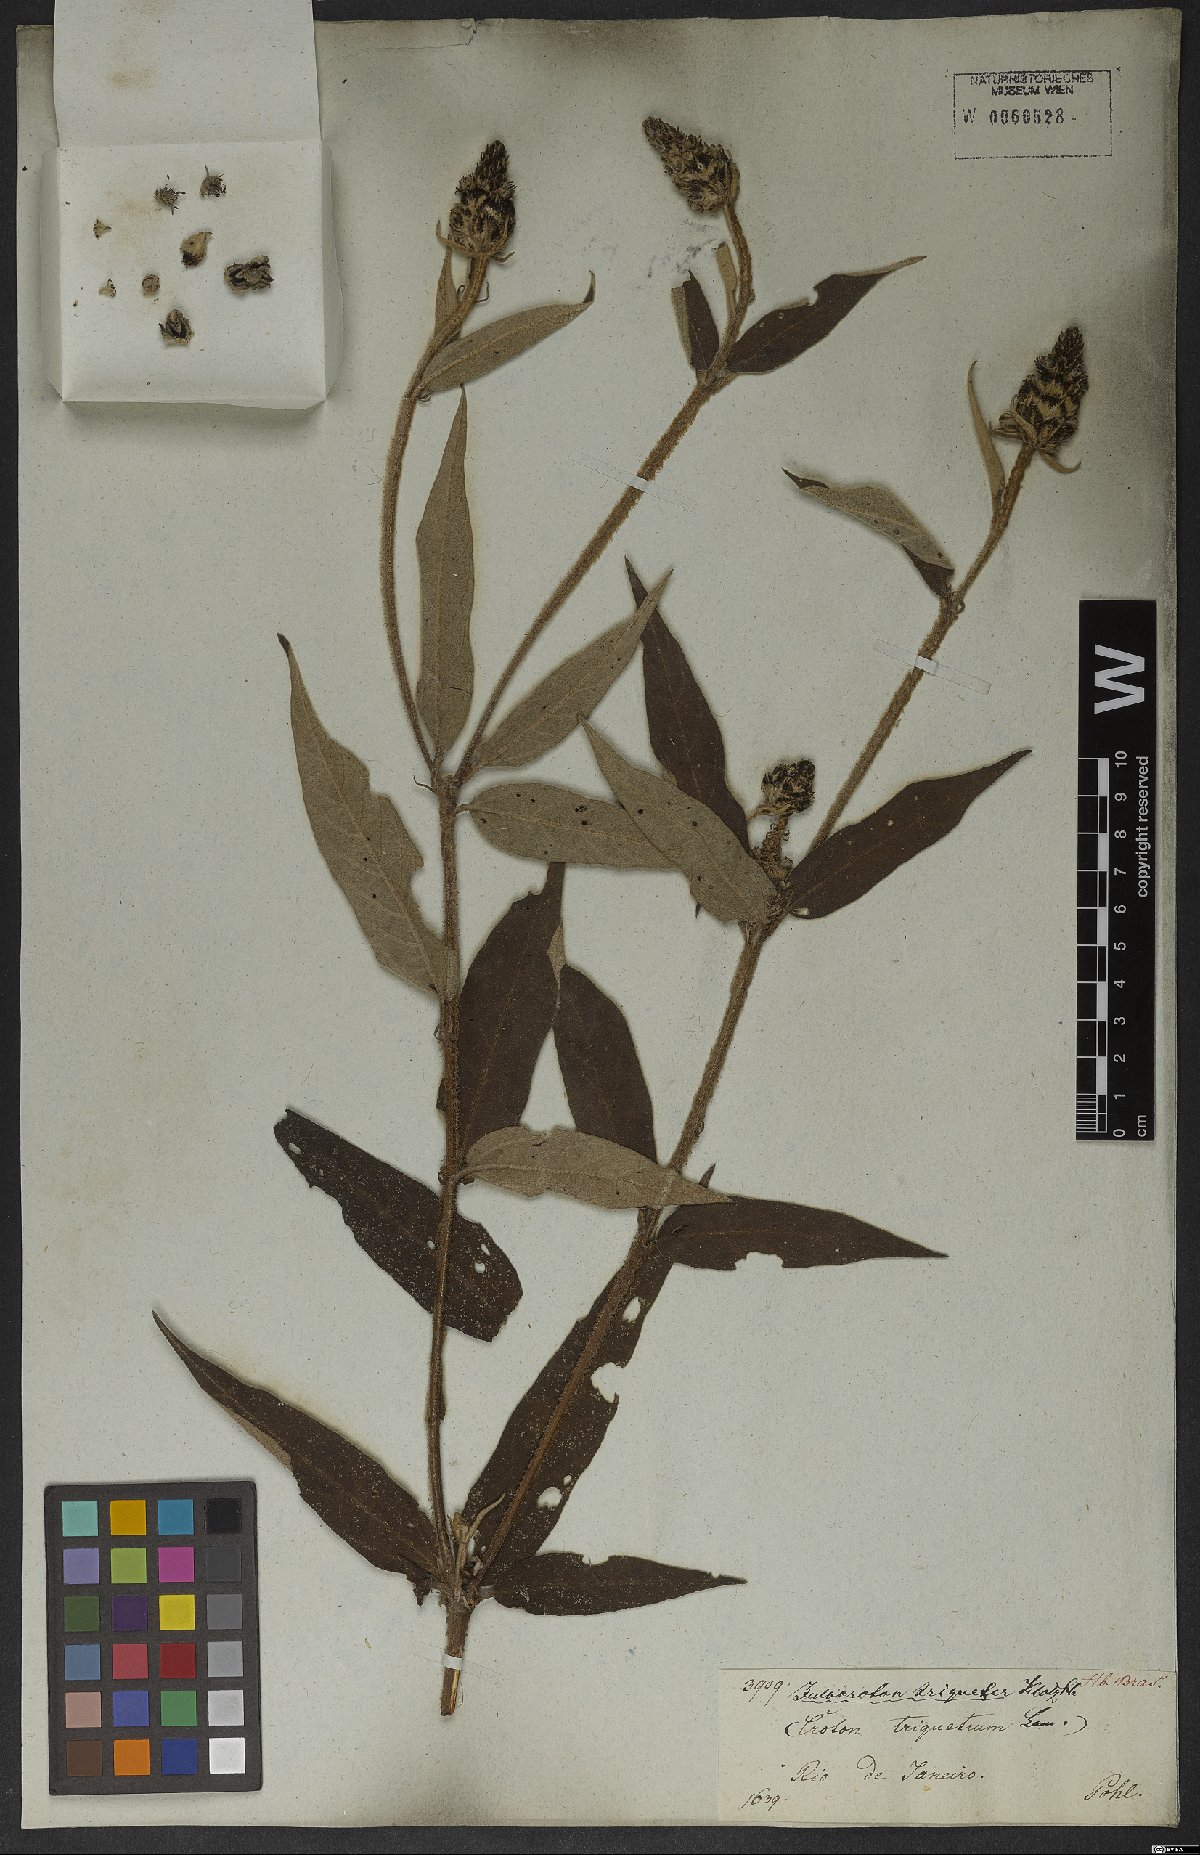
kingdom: Plantae
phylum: Tracheophyta
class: Magnoliopsida
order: Malpighiales
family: Euphorbiaceae
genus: Croton
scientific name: Croton gnaphaloides
